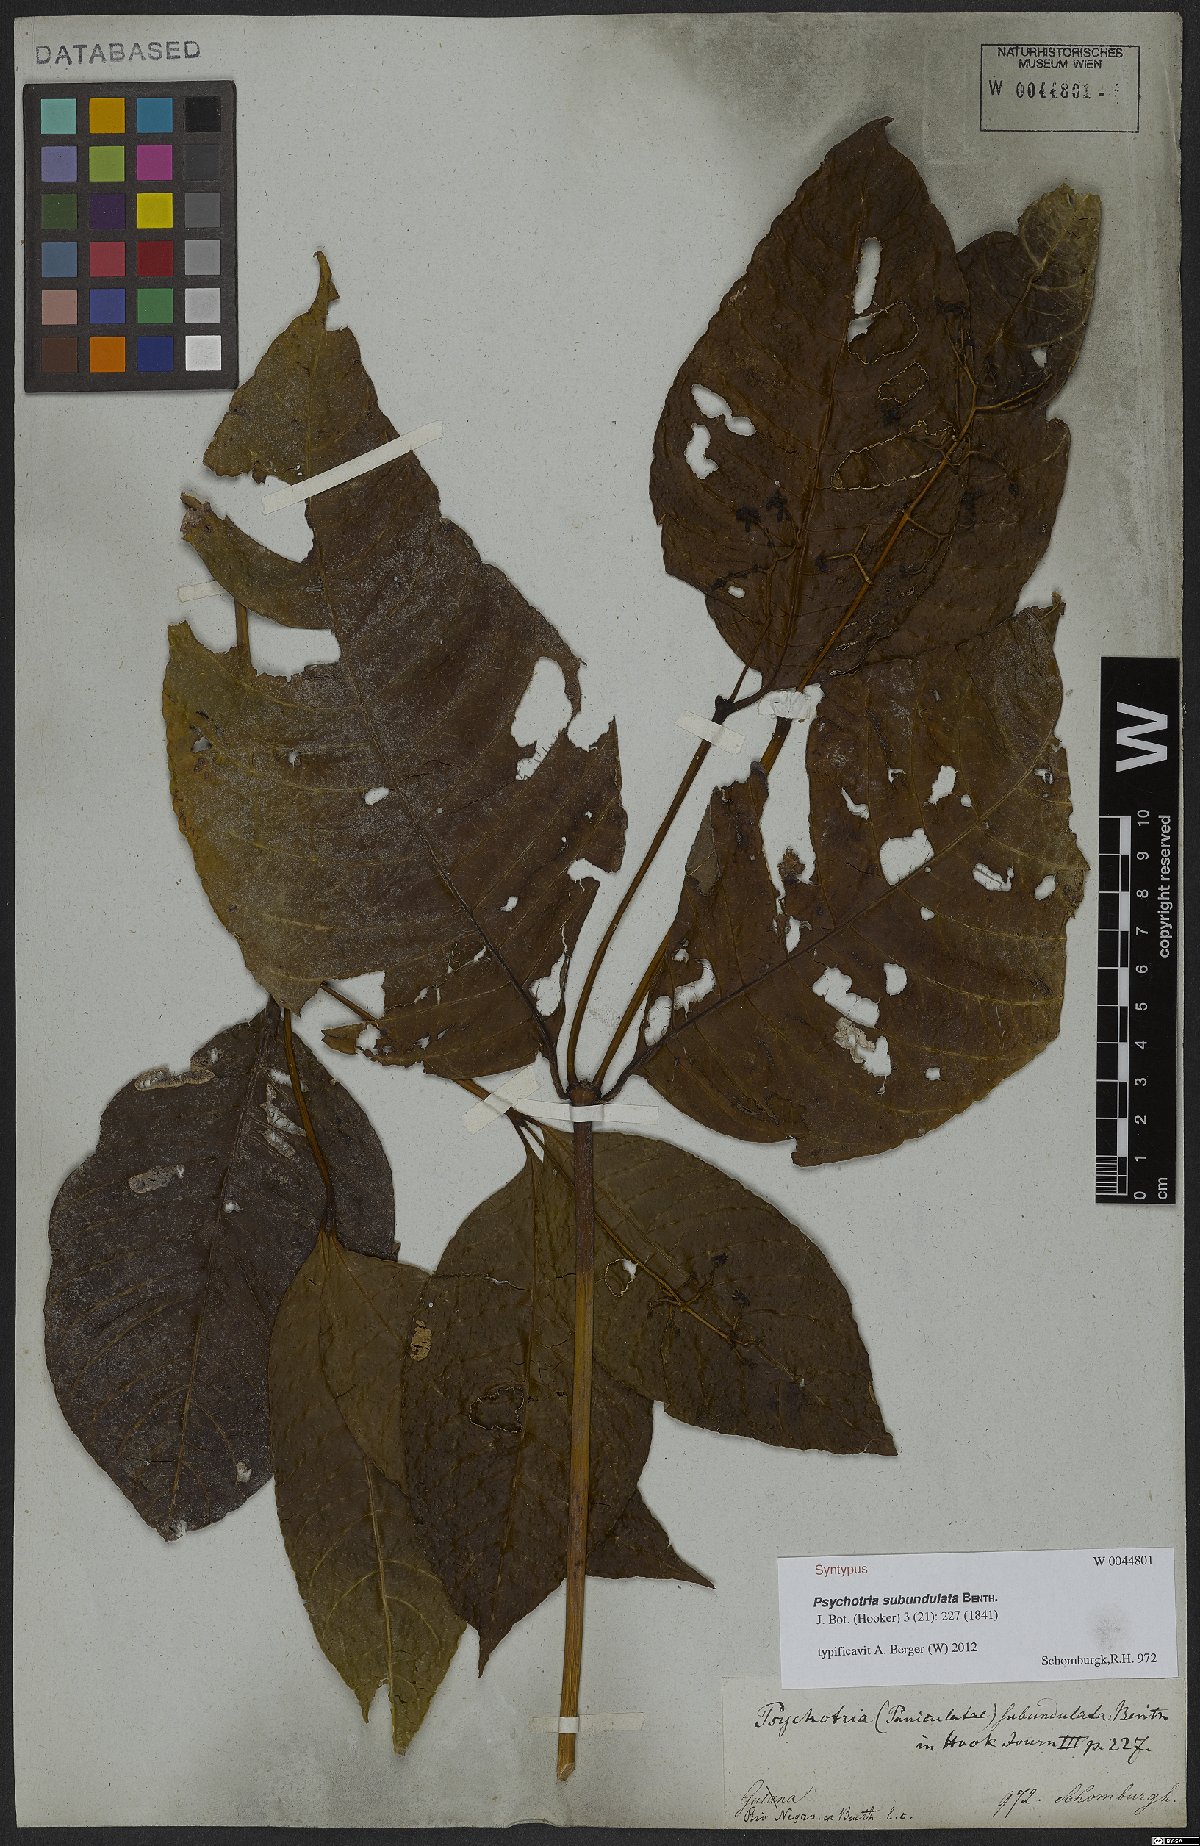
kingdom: Plantae
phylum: Tracheophyta
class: Magnoliopsida
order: Gentianales
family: Rubiaceae
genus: Palicourea
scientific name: Palicourea subundulata
